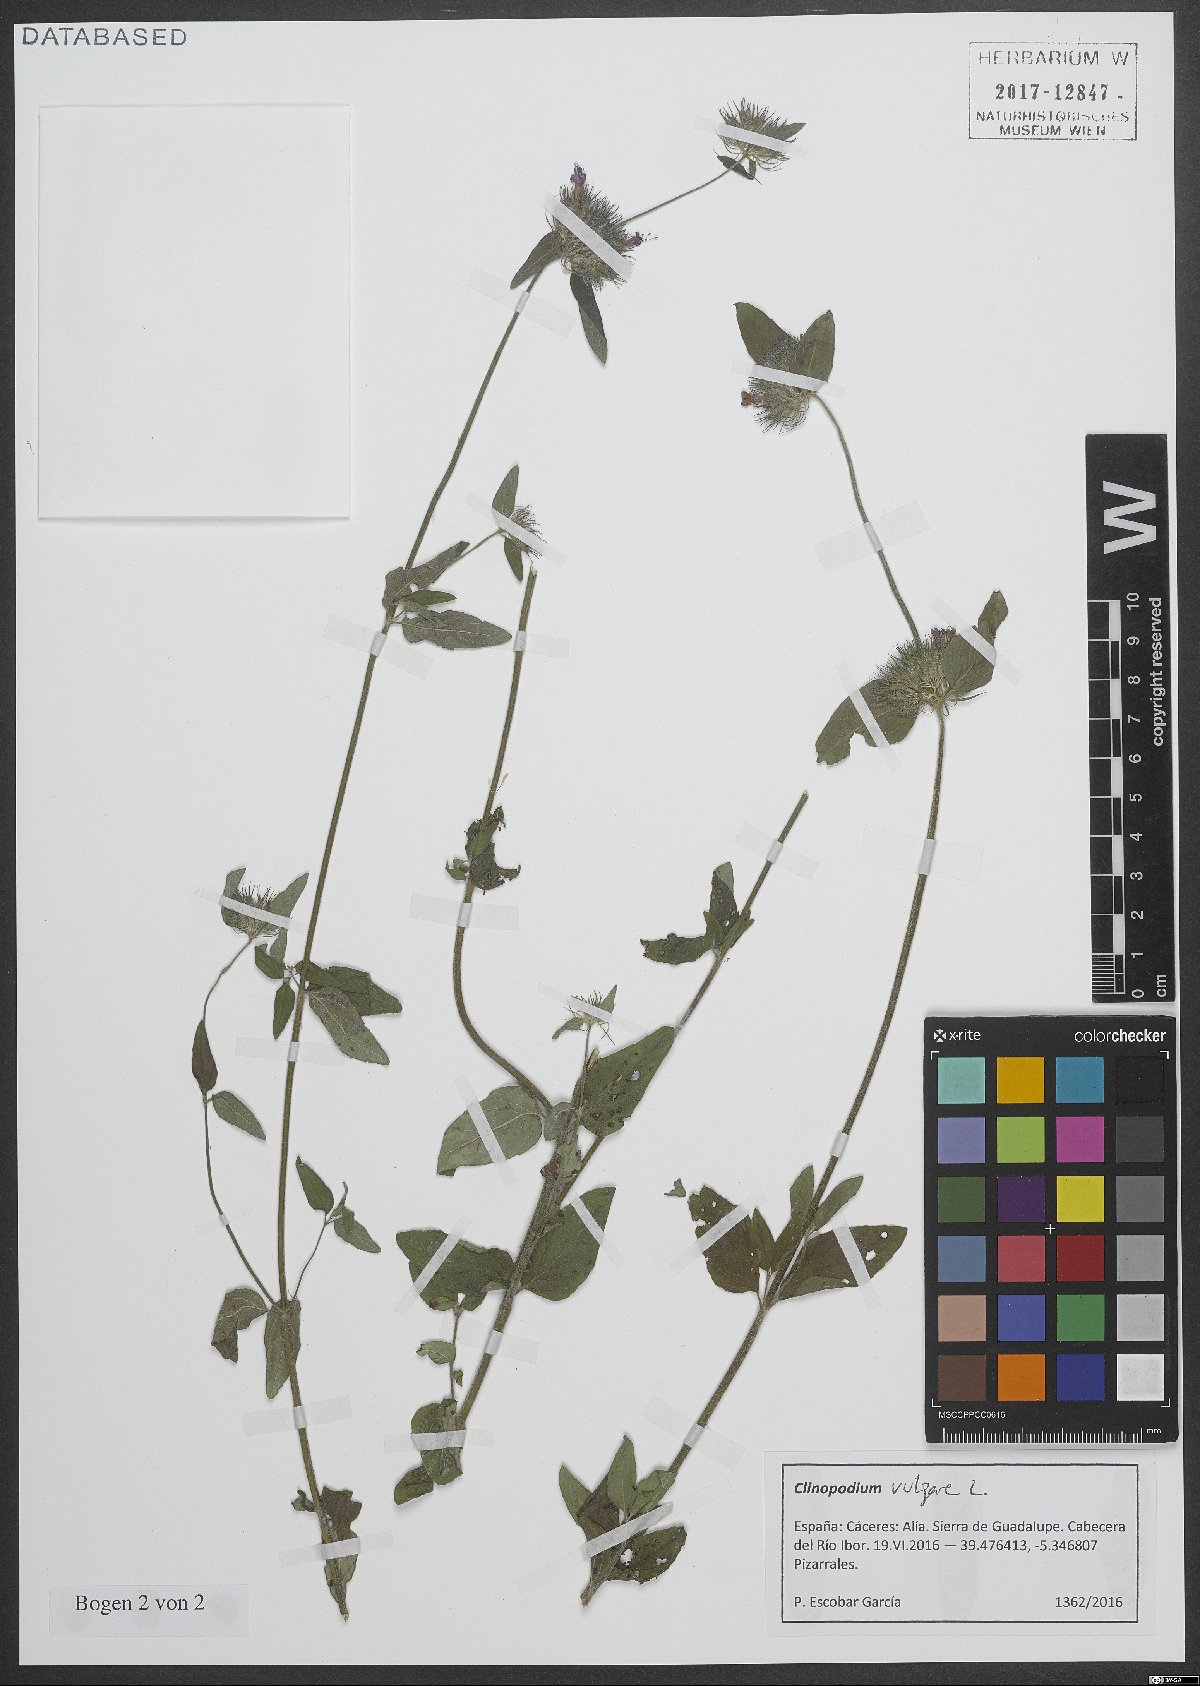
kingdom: Plantae
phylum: Tracheophyta
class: Magnoliopsida
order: Lamiales
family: Lamiaceae
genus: Clinopodium
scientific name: Clinopodium vulgare
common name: Wild basil
